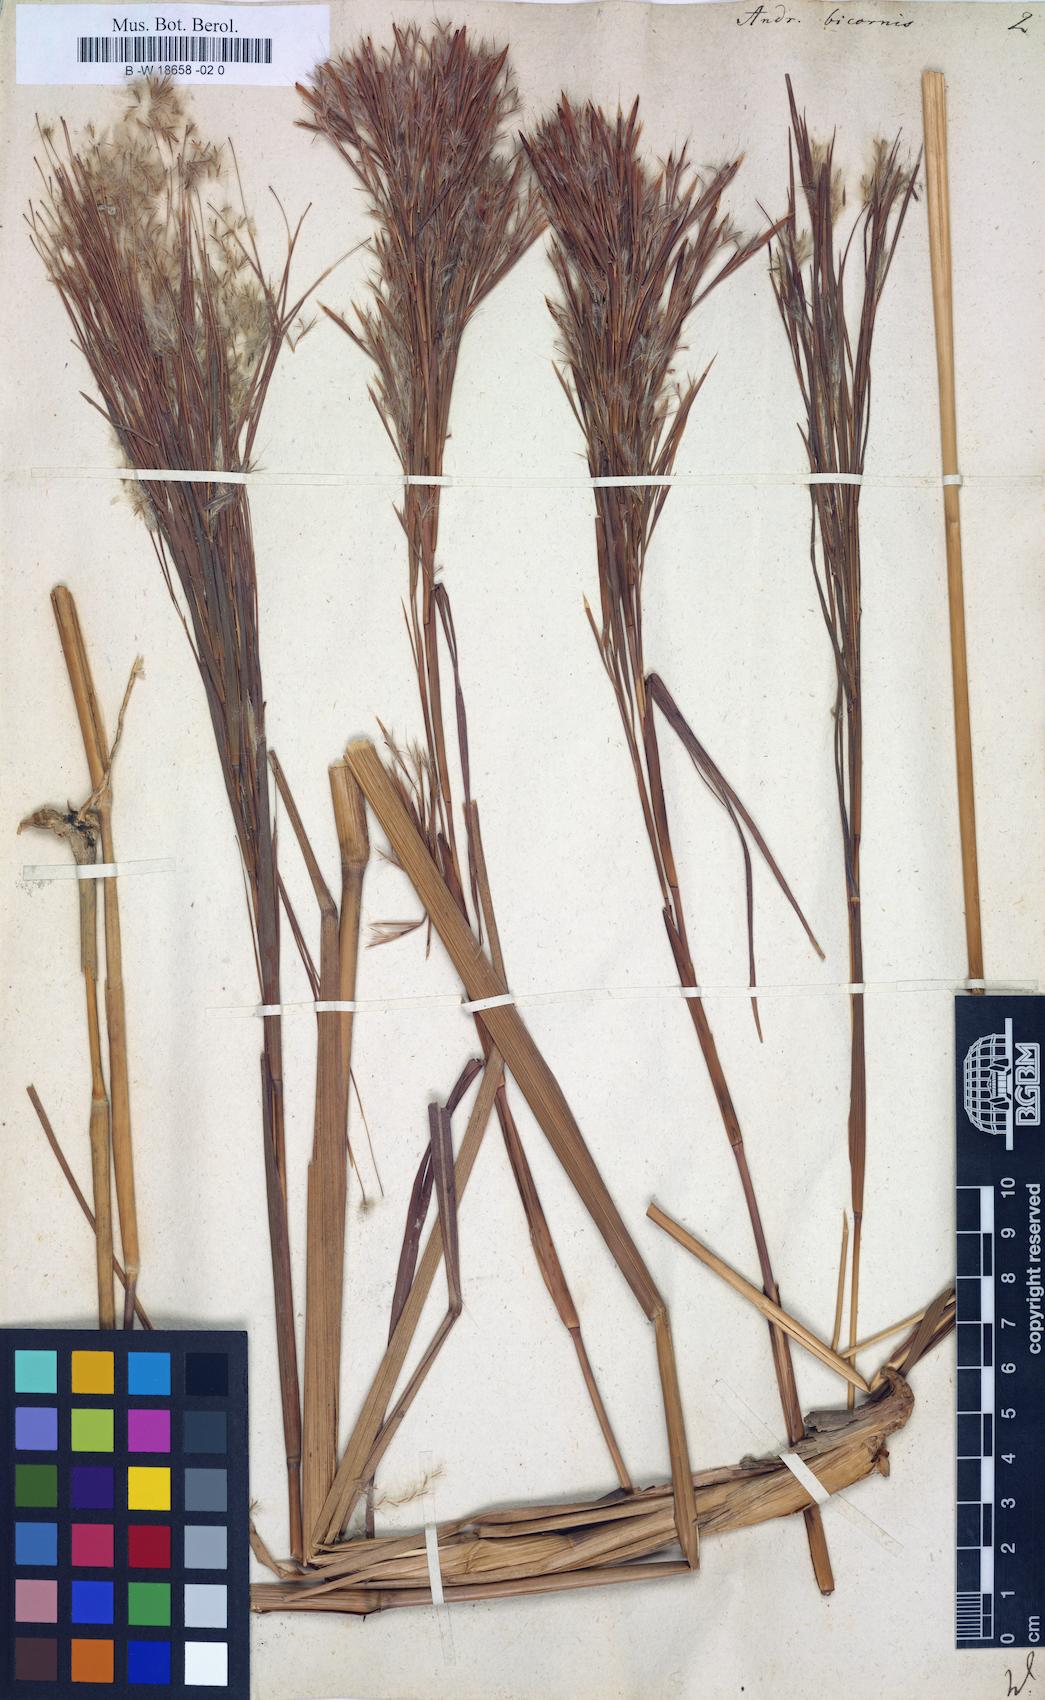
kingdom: Plantae
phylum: Tracheophyta
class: Liliopsida
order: Poales
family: Poaceae
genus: Andropogon
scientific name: Andropogon bicornis
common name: West indian foxtail grass
